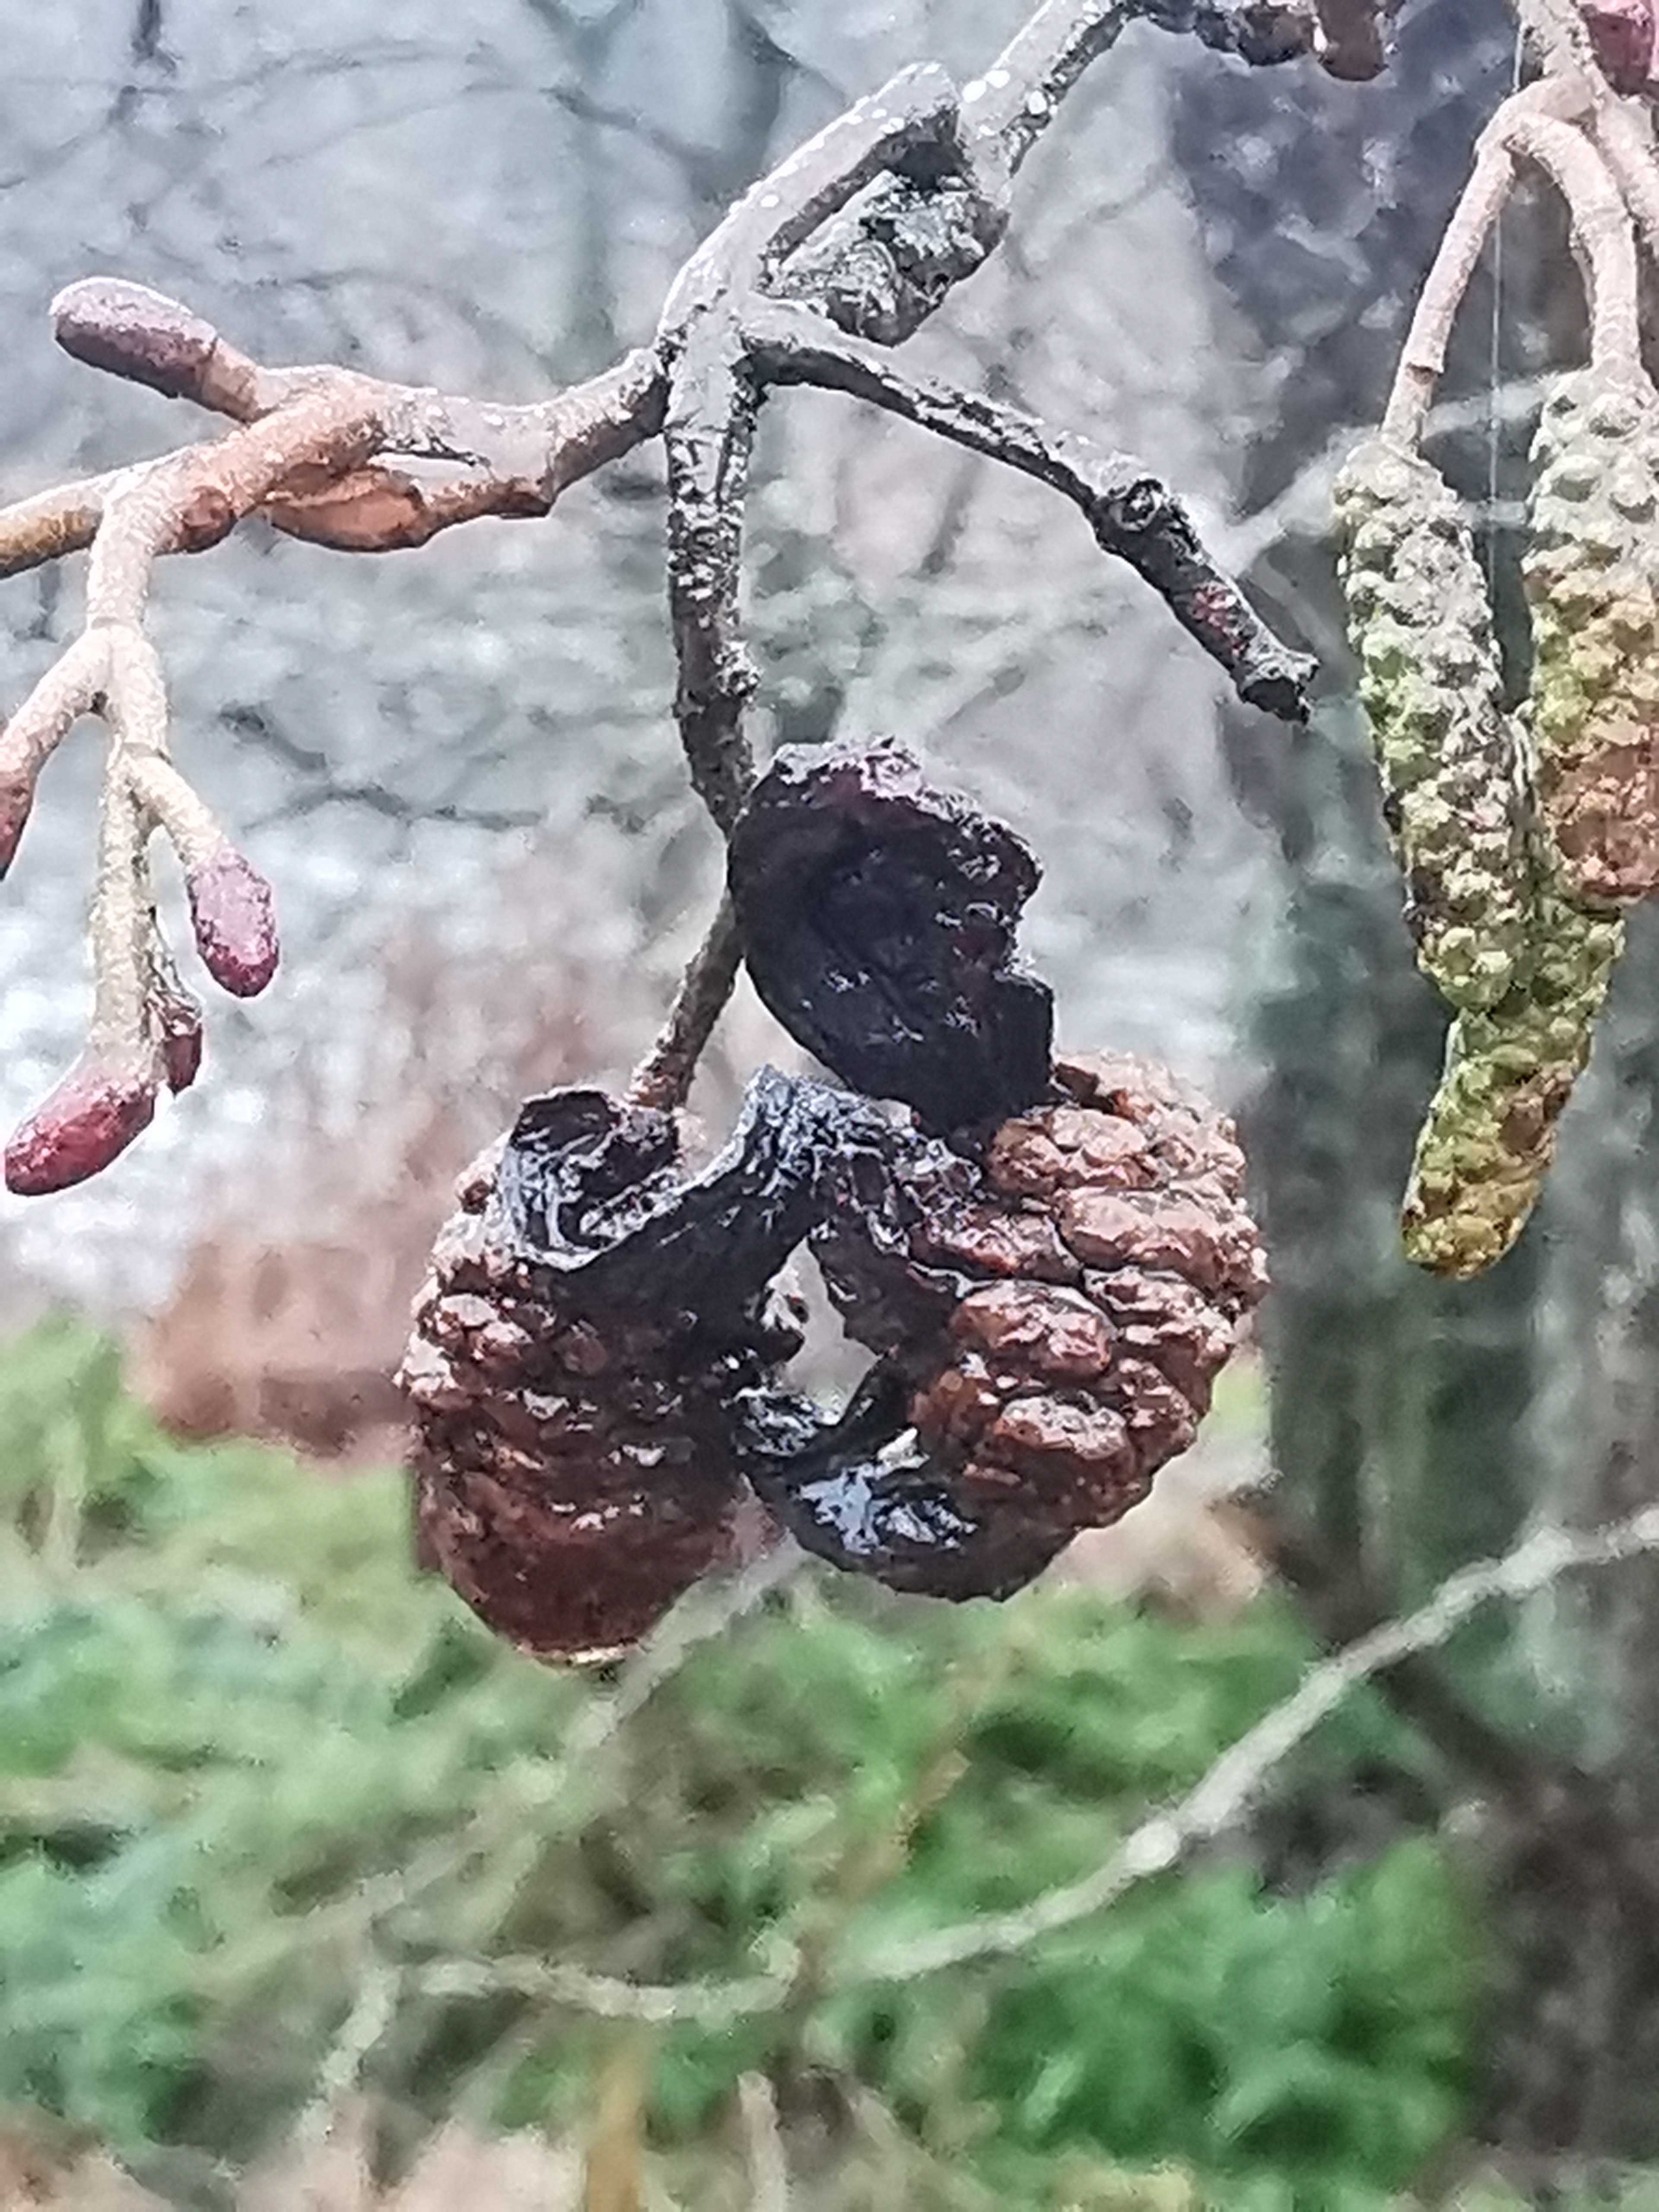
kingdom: Fungi
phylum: Ascomycota
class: Taphrinomycetes
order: Taphrinales
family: Taphrinaceae
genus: Taphrina
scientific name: Taphrina alni
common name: Alder tongue
